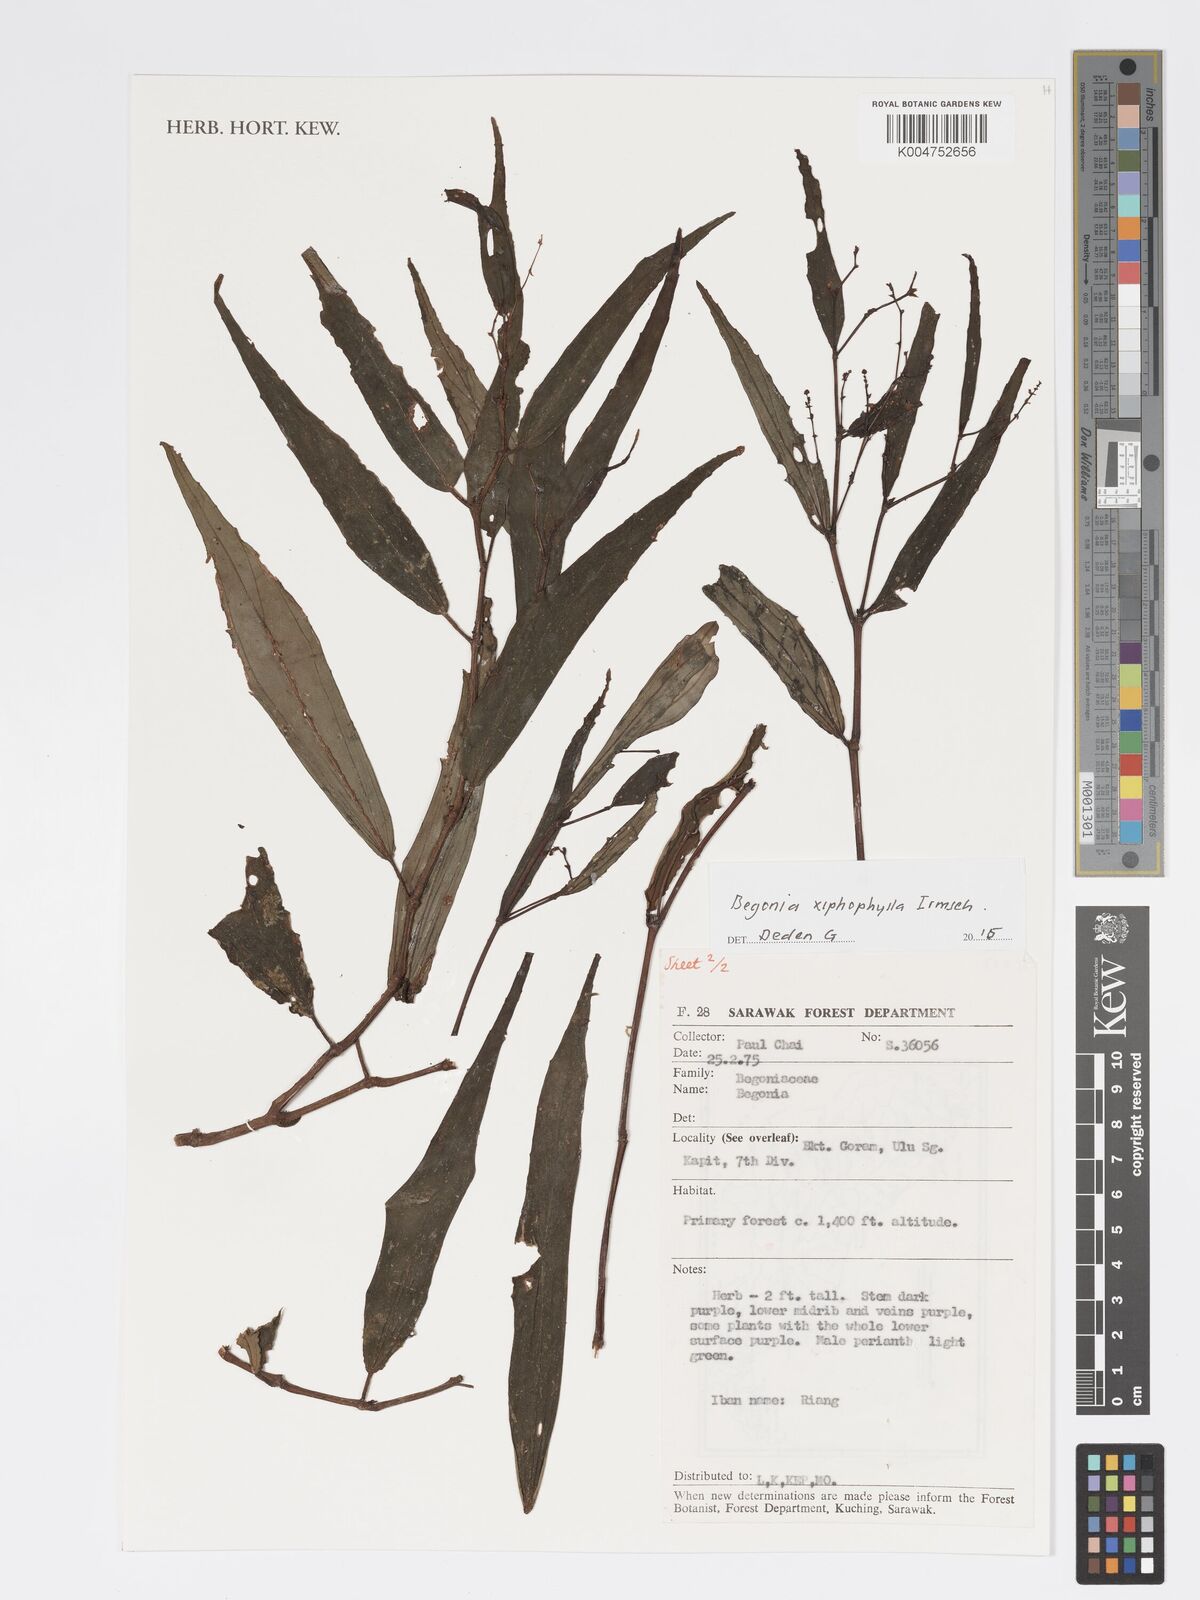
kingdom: Plantae
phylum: Tracheophyta
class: Magnoliopsida
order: Cucurbitales
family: Begoniaceae
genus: Begonia
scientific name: Begonia xiphophylla
